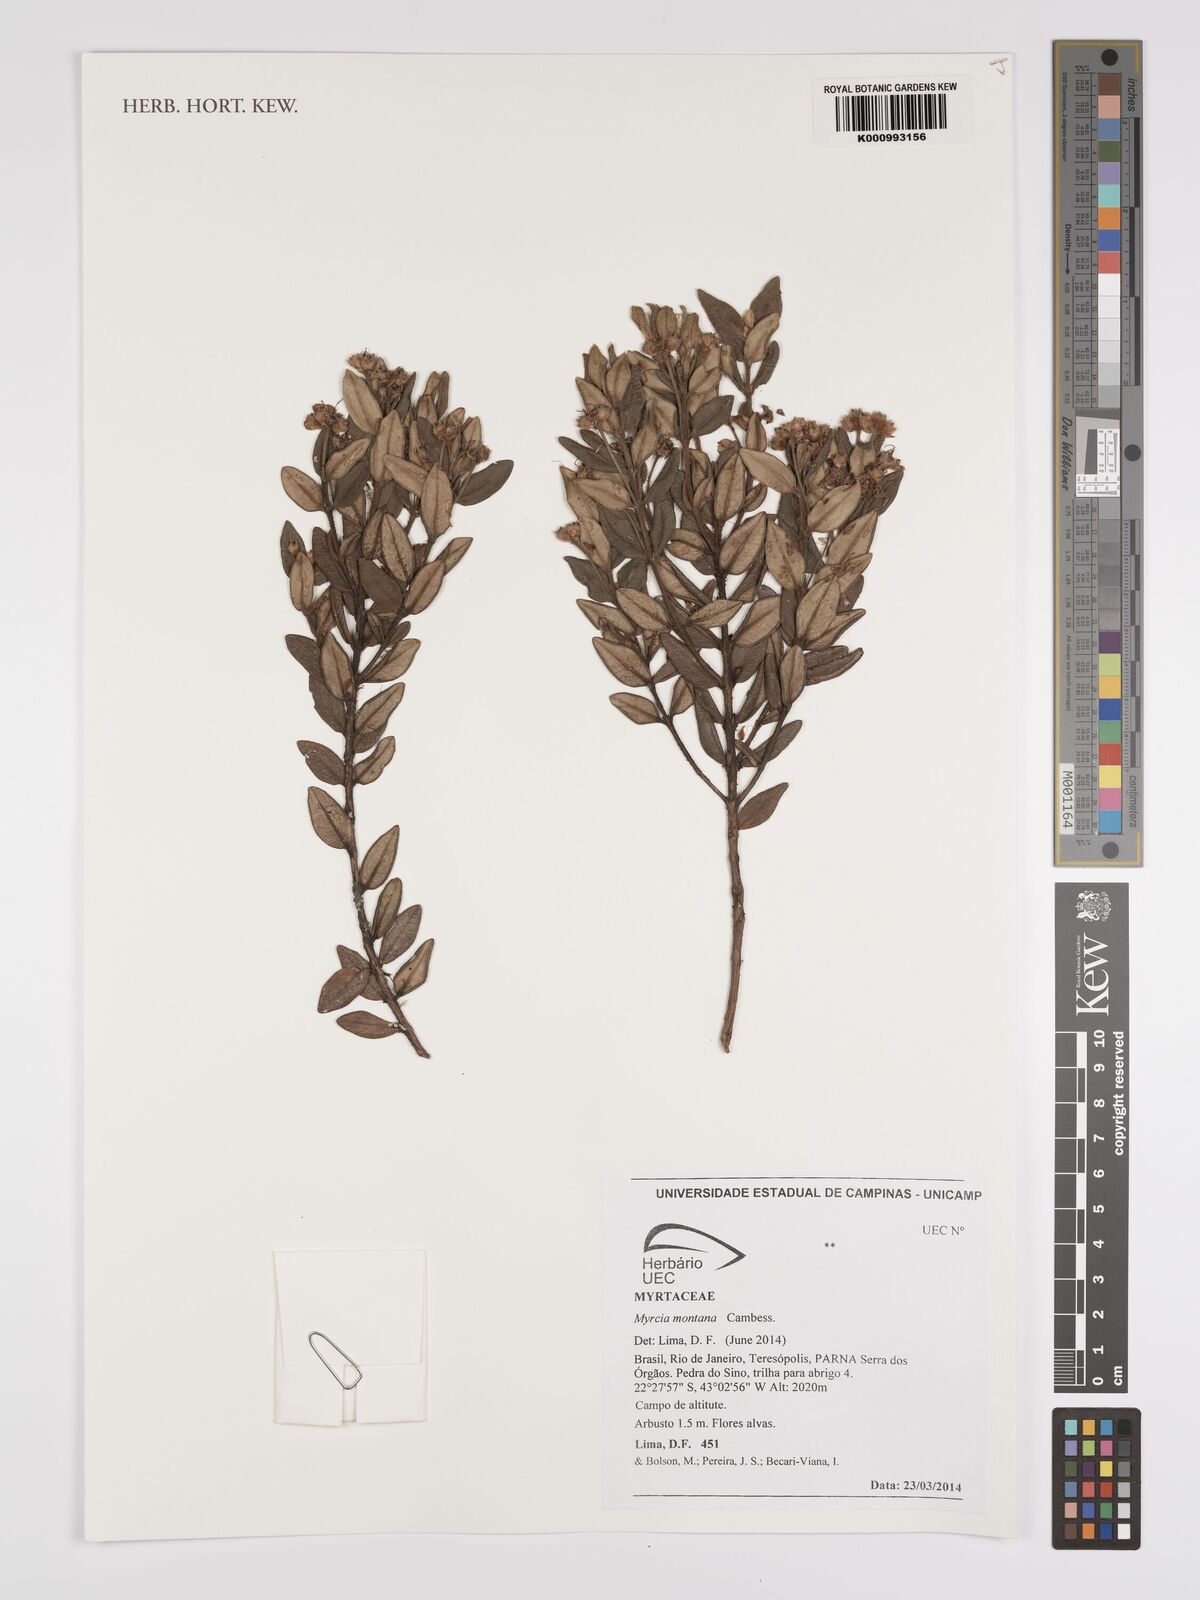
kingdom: Plantae
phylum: Tracheophyta
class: Magnoliopsida
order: Myrtales
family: Myrtaceae
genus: Myrcia
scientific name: Myrcia montana
